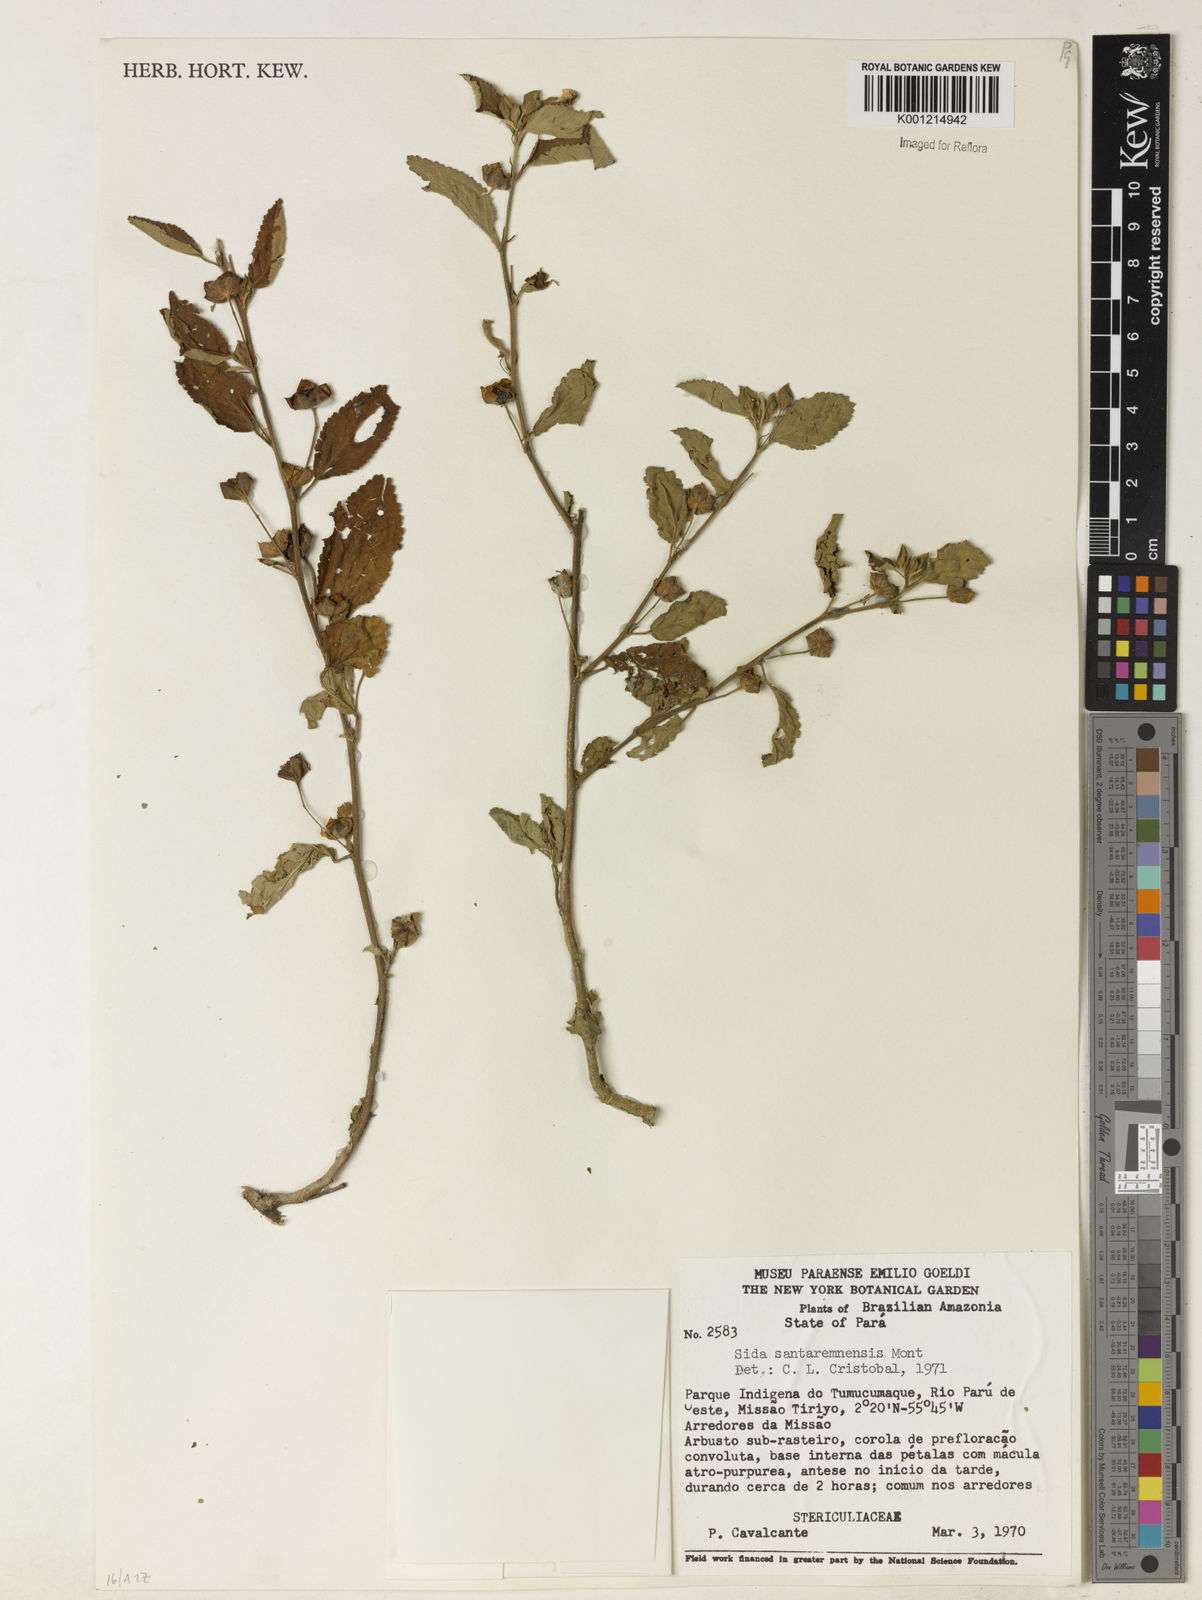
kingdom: Plantae
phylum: Tracheophyta
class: Magnoliopsida
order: Malvales
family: Malvaceae
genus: Sida
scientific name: Sida santaremensis
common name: Moth fanpetals
